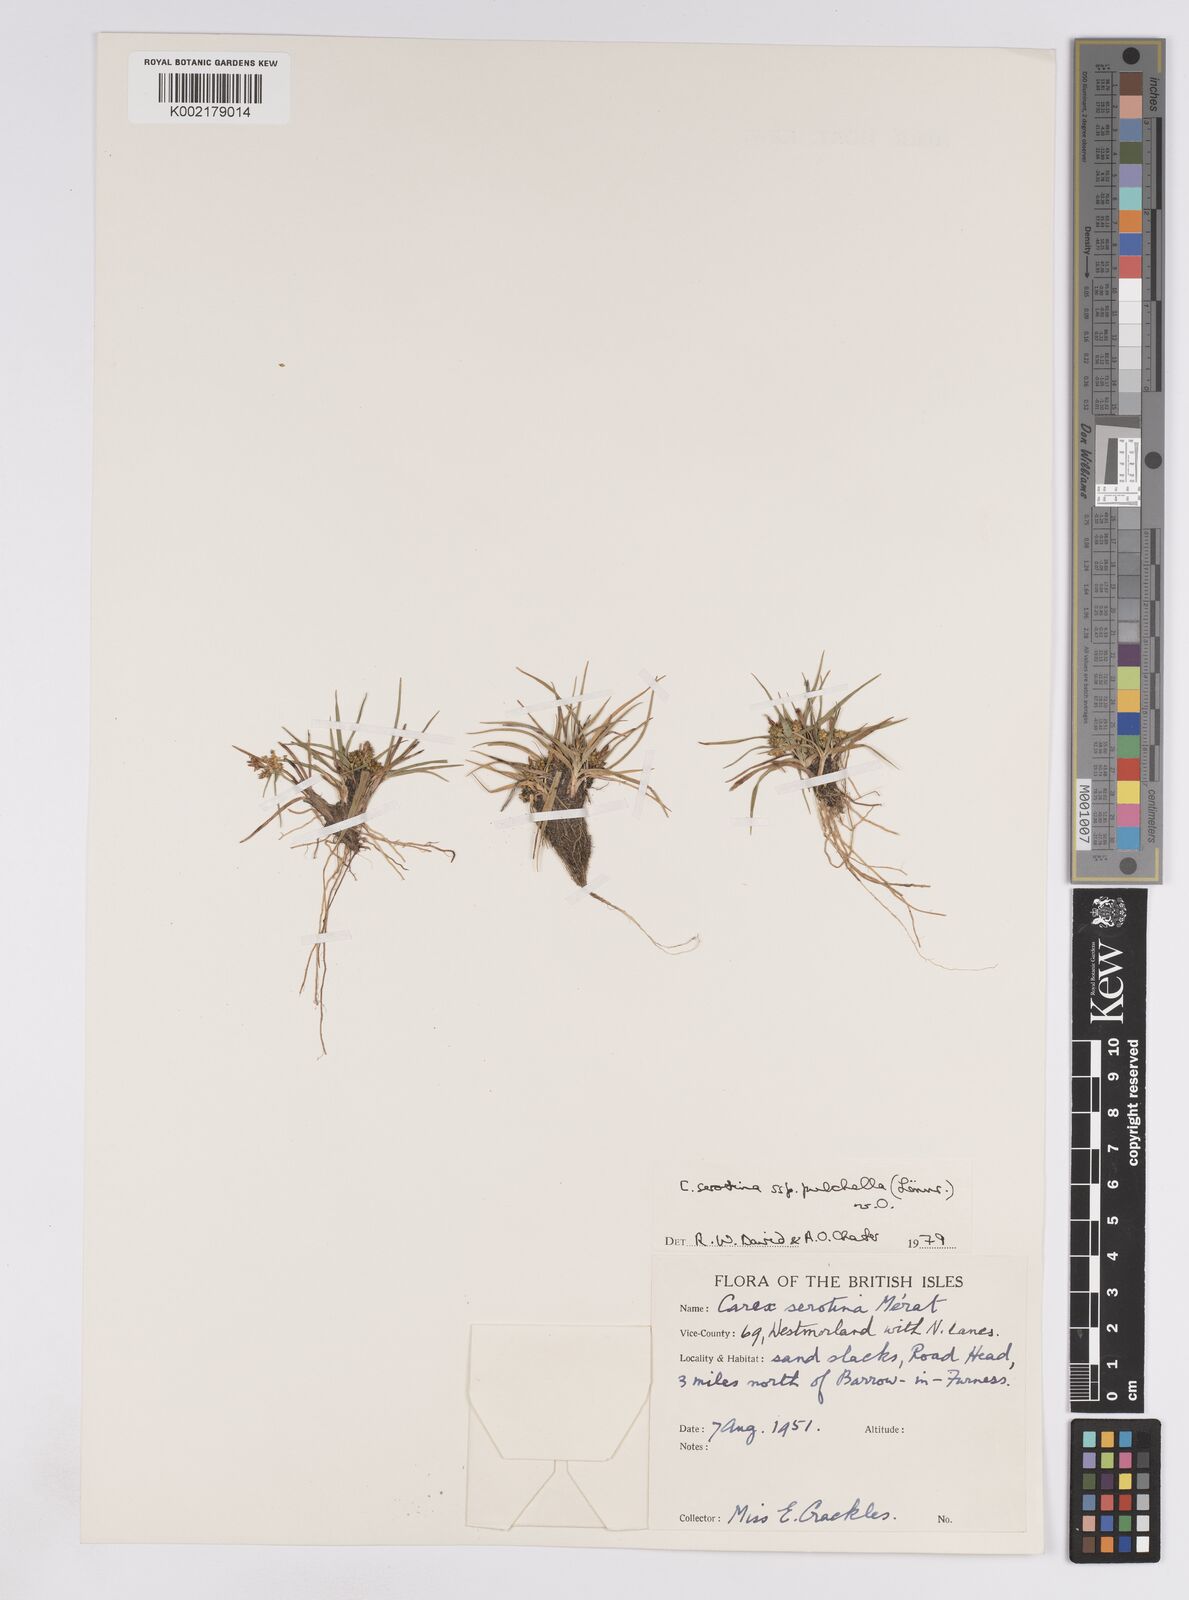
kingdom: Plantae
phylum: Tracheophyta
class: Liliopsida
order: Poales
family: Cyperaceae
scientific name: Cyperaceae
